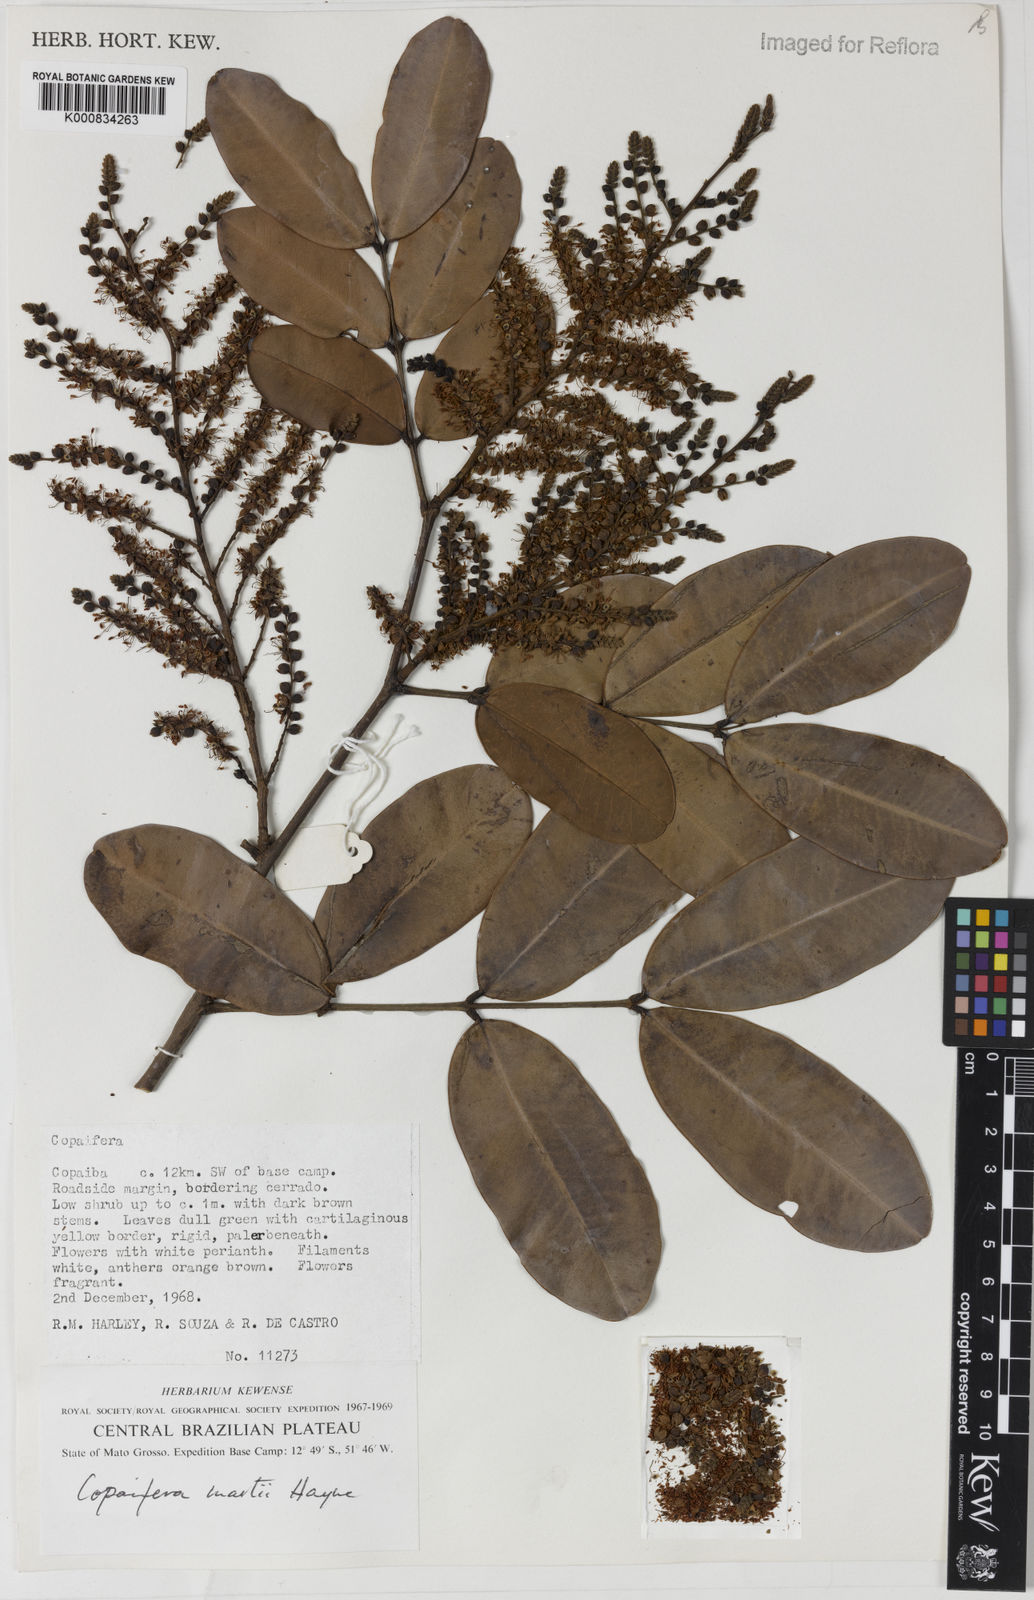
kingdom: Plantae
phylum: Tracheophyta
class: Magnoliopsida
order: Fabales
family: Fabaceae
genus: Copaifera
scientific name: Copaifera martii
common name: Copaiba
